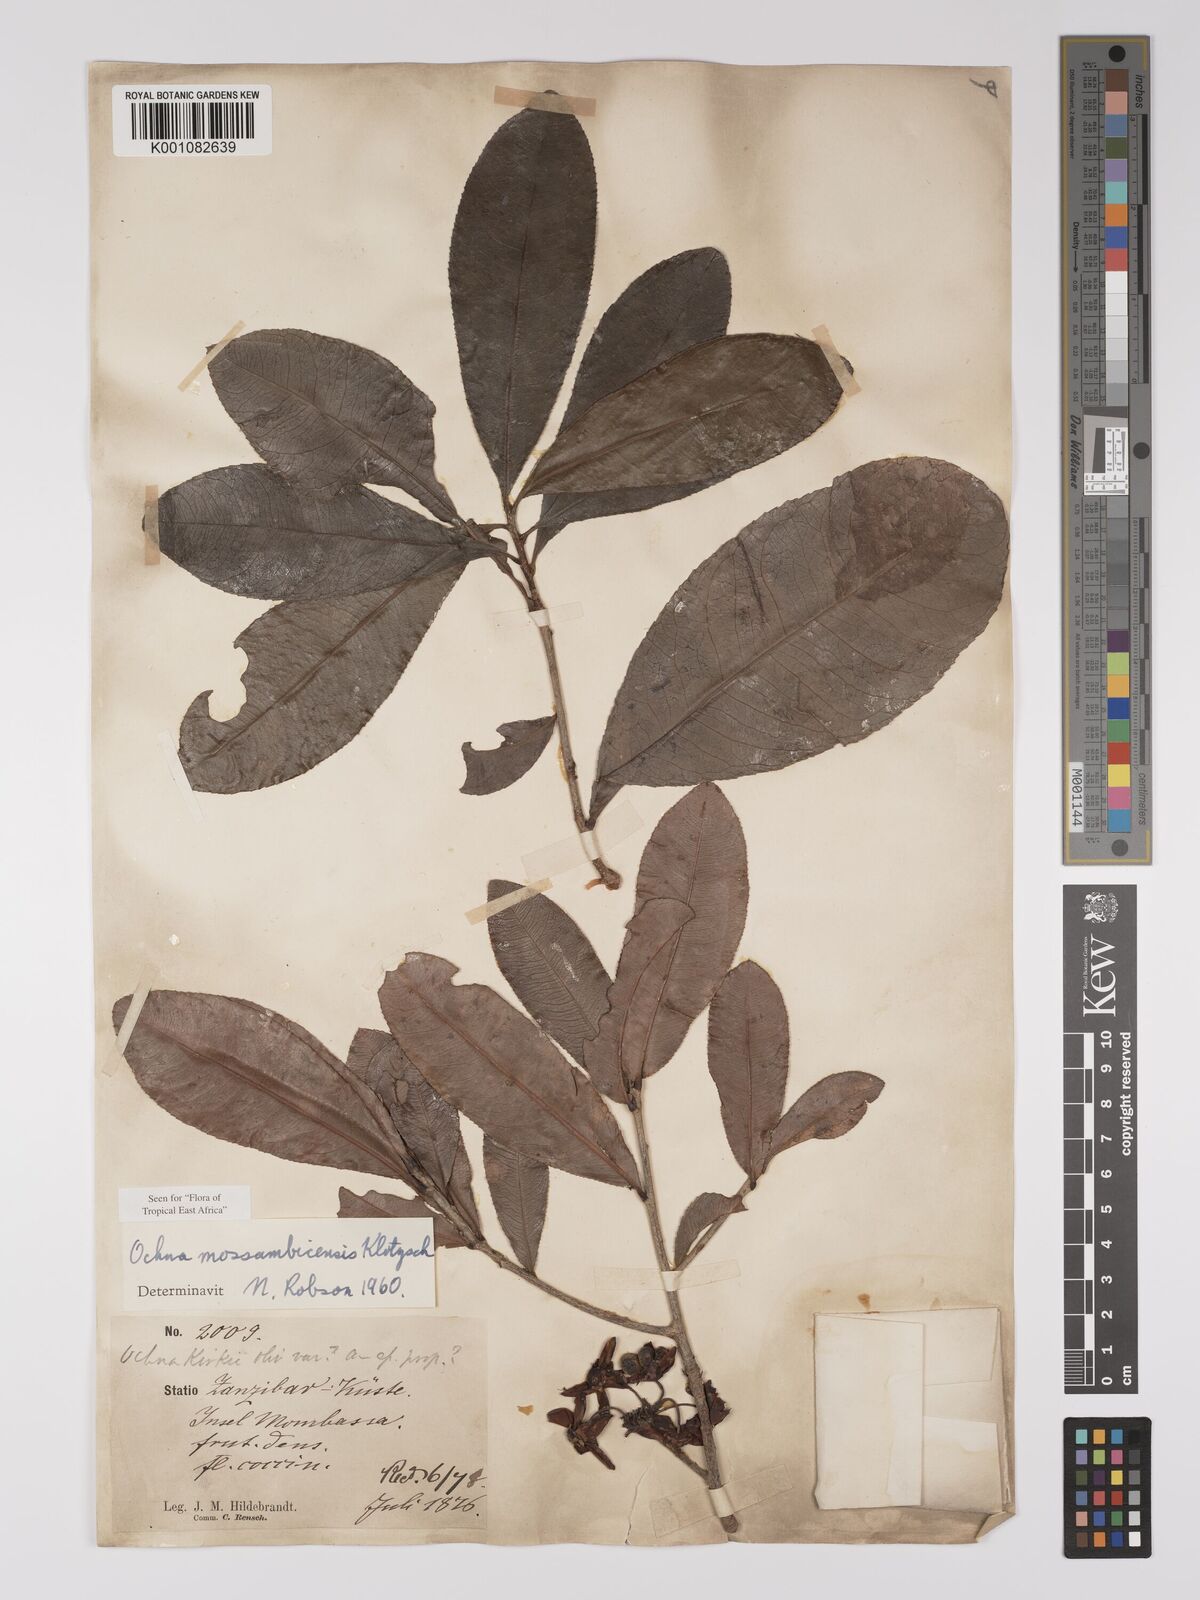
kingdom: Plantae
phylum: Tracheophyta
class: Magnoliopsida
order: Malpighiales
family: Ochnaceae
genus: Ochna
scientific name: Ochna atropurpurea
